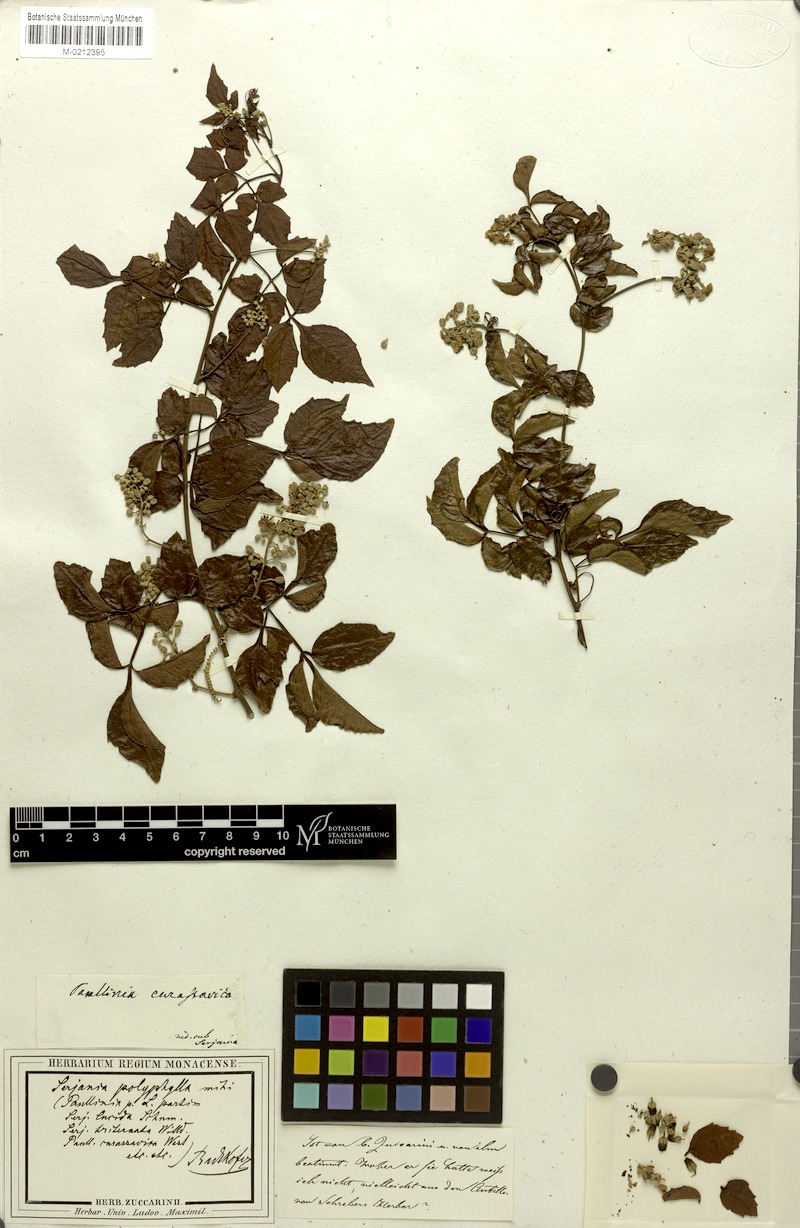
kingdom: Plantae
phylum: Tracheophyta
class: Magnoliopsida
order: Sapindales
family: Sapindaceae
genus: Serjania
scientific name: Serjania polyphylla
